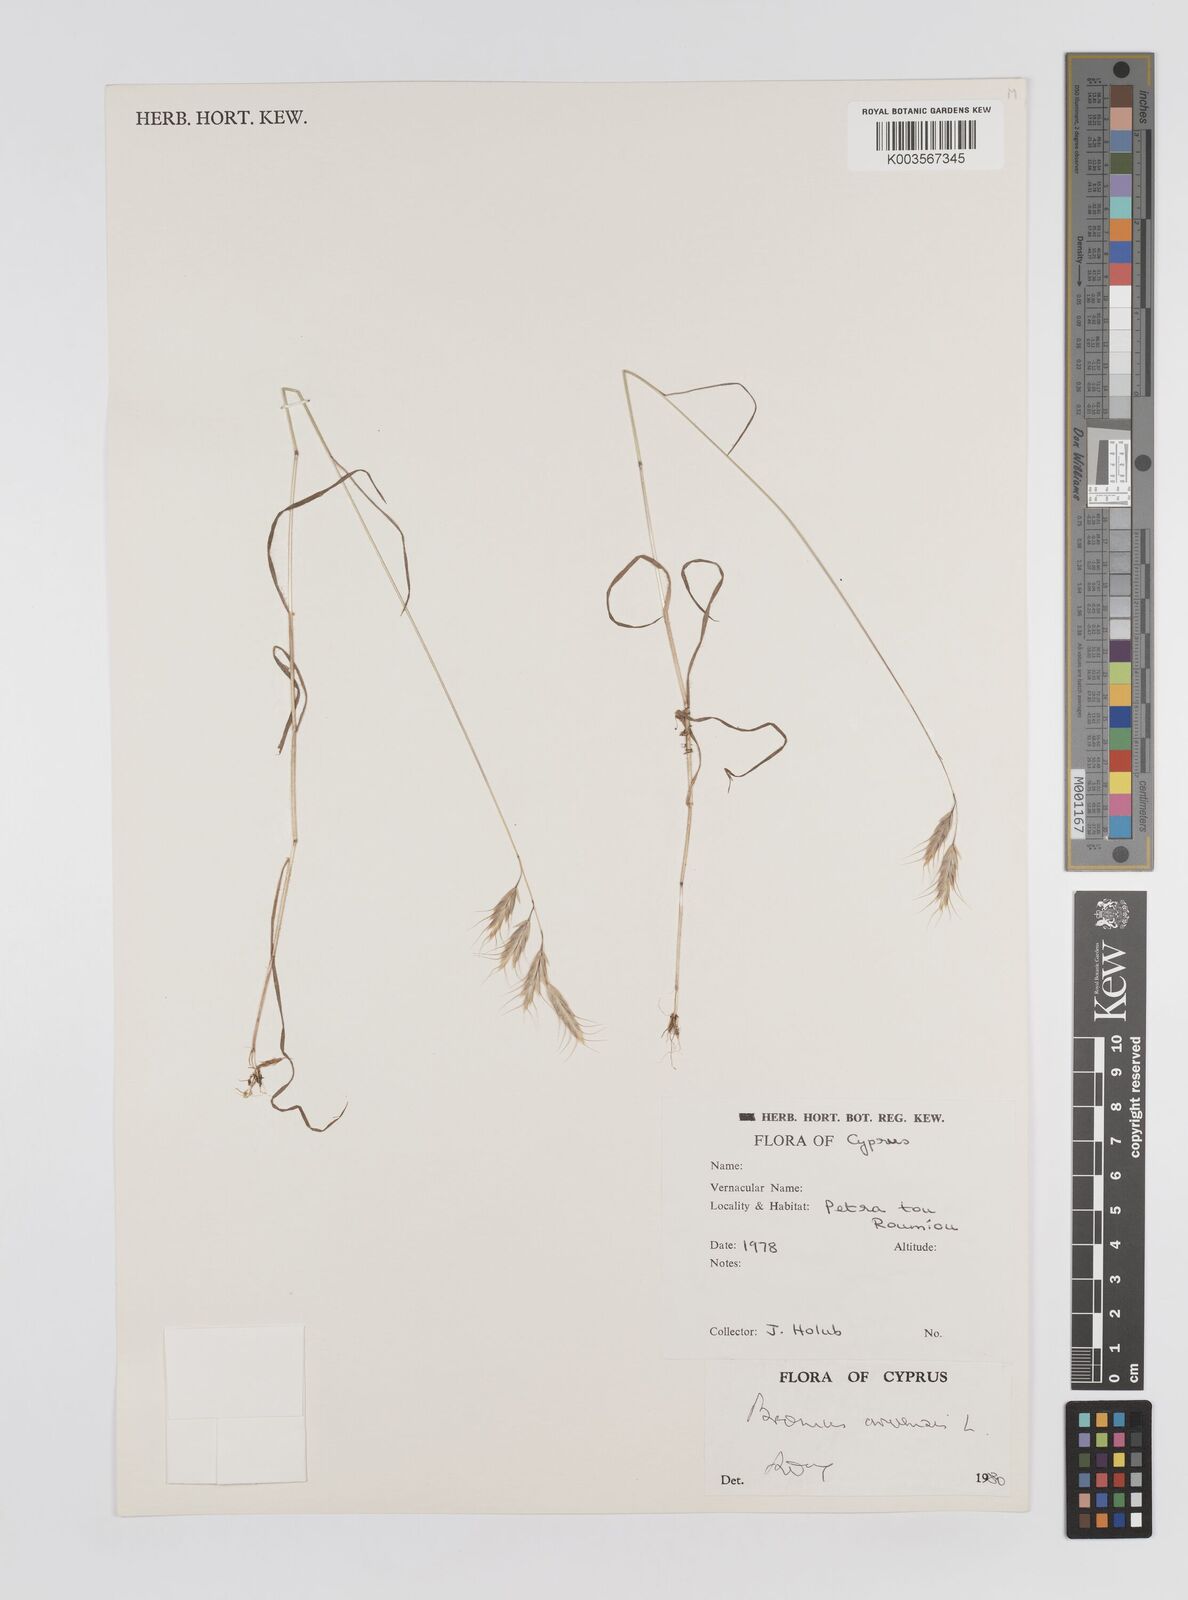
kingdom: Plantae
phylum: Tracheophyta
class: Liliopsida
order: Poales
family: Poaceae
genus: Bromus
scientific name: Bromus arvensis
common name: Field brome
